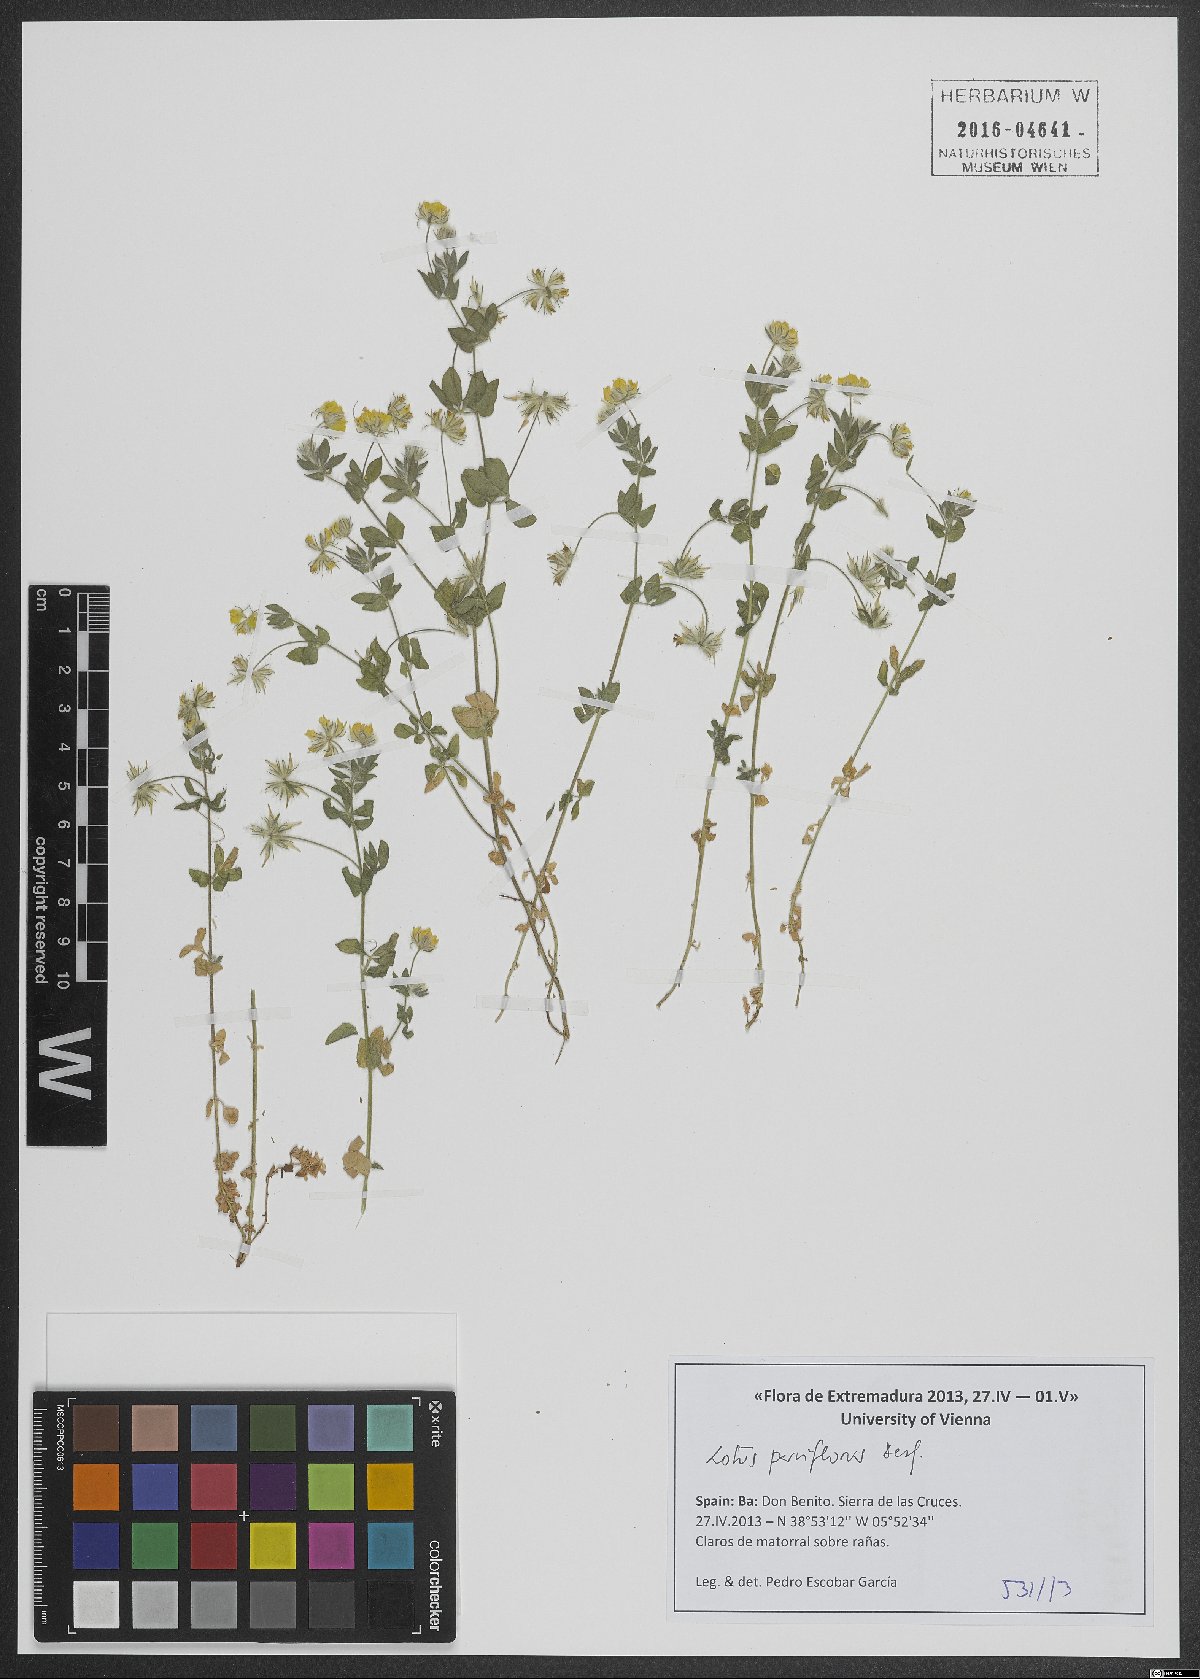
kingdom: Plantae
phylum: Tracheophyta
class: Magnoliopsida
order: Fabales
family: Fabaceae
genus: Lotus
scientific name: Lotus parviflorus
